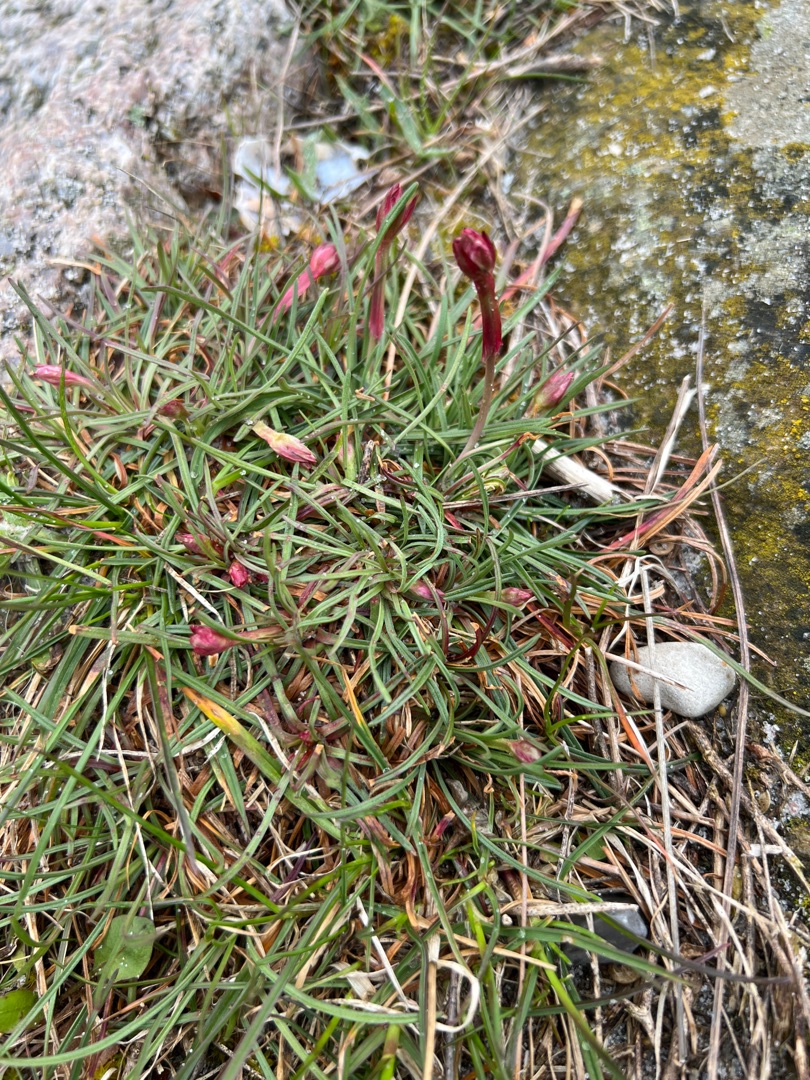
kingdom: Plantae
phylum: Tracheophyta
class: Magnoliopsida
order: Caryophyllales
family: Plumbaginaceae
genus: Armeria
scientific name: Armeria maritima
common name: Engelskgræs
